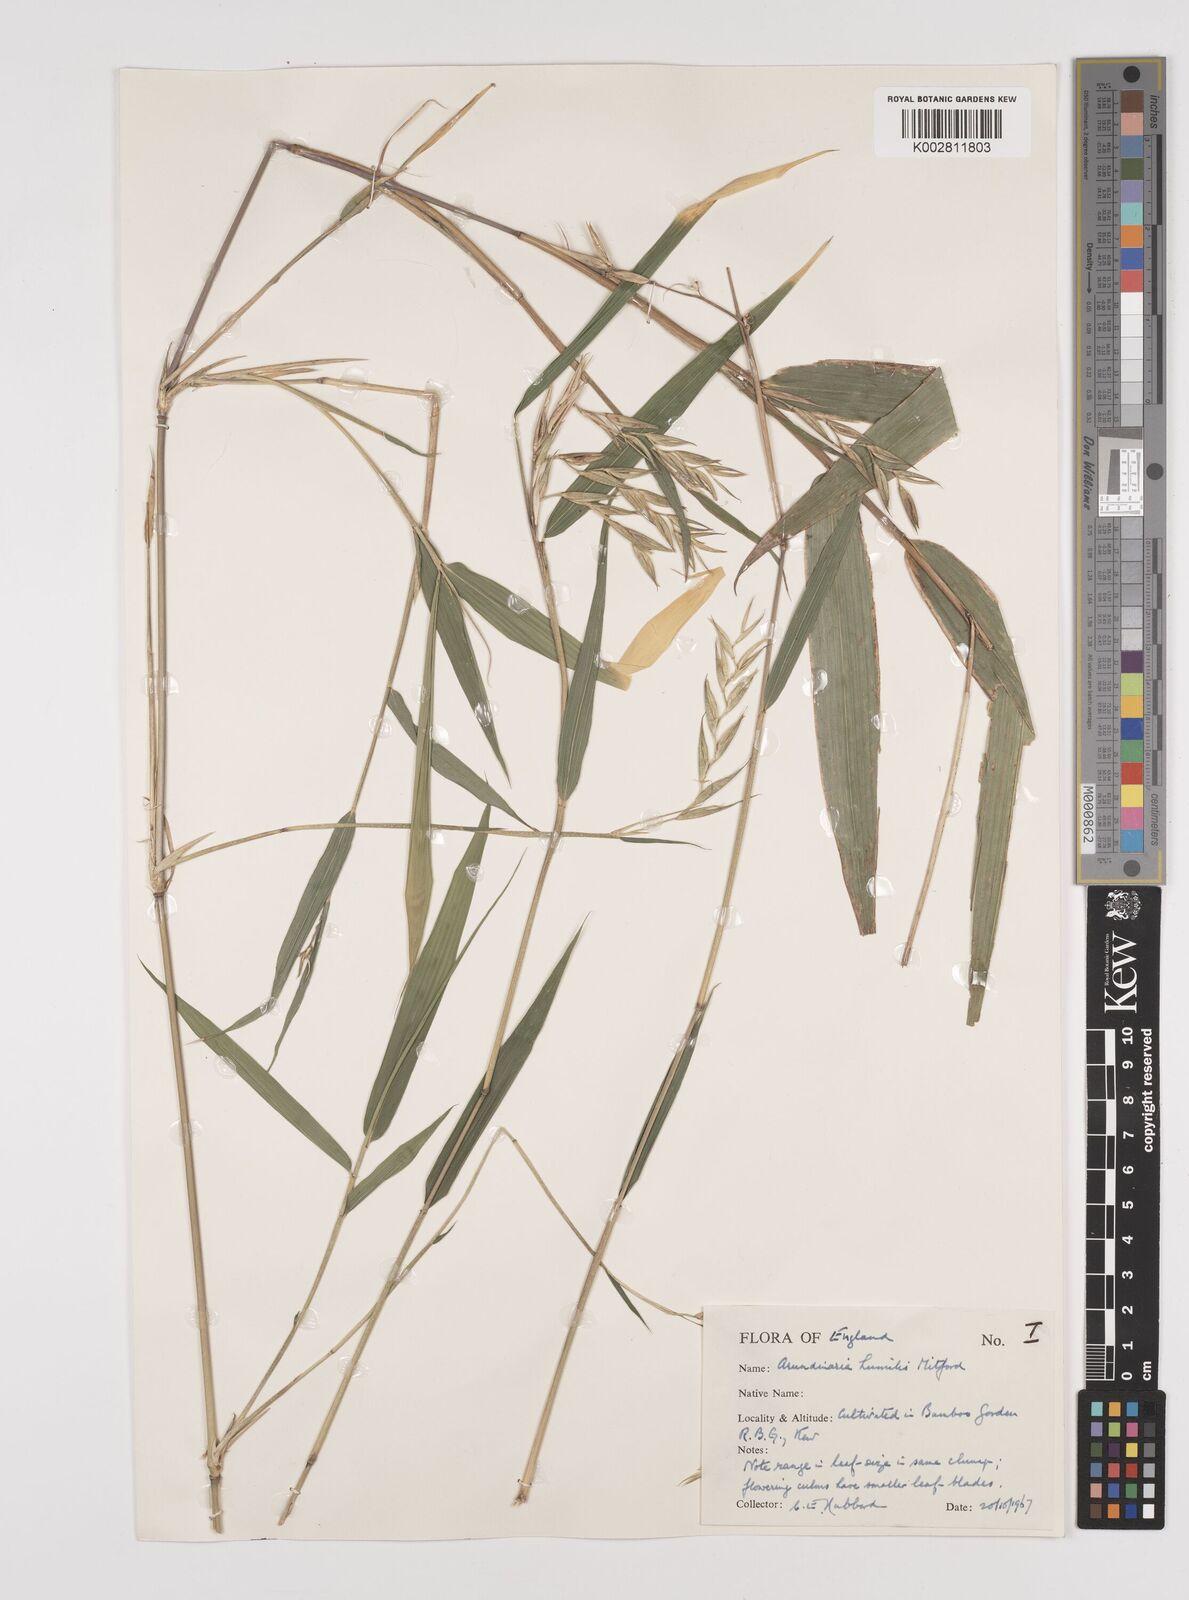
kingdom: Plantae
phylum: Tracheophyta
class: Liliopsida
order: Poales
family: Poaceae
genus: Pseudosasa
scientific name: Pseudosasa humilis
